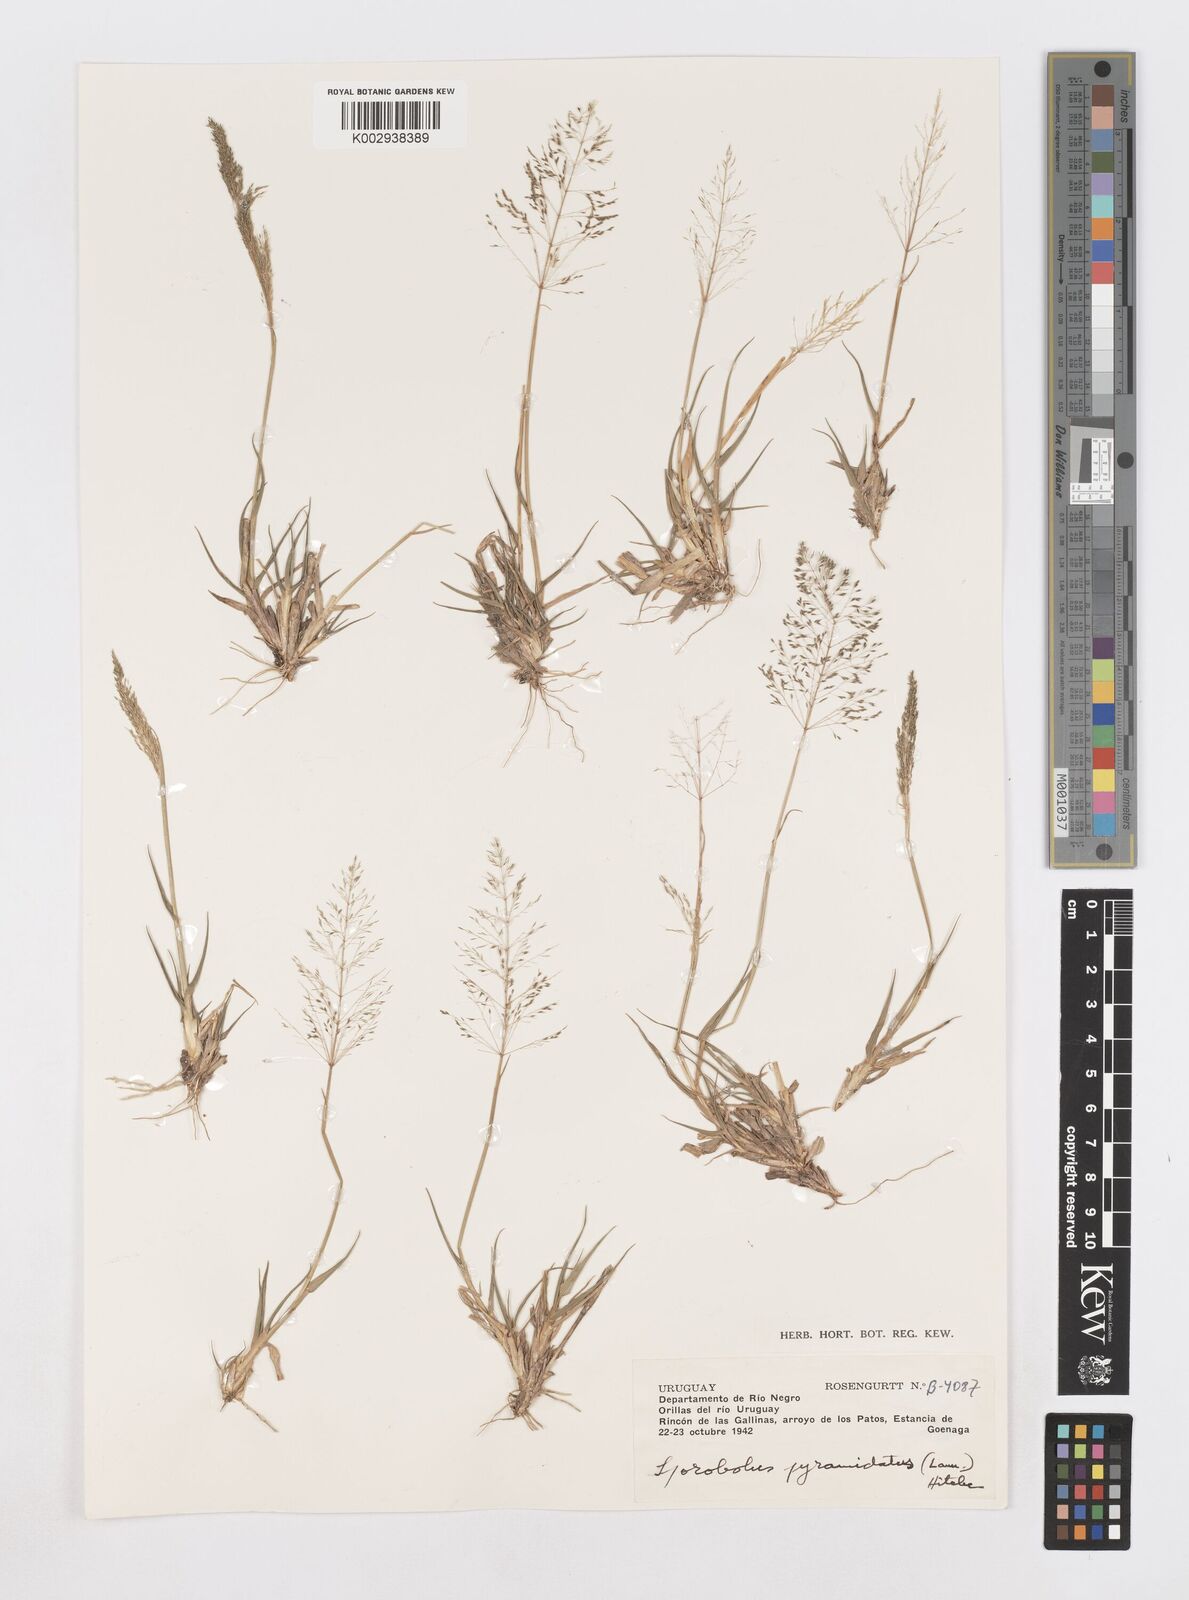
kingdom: Plantae
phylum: Tracheophyta
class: Liliopsida
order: Poales
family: Poaceae
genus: Sporobolus
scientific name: Sporobolus pyramidatus
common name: Whorled dropseed
